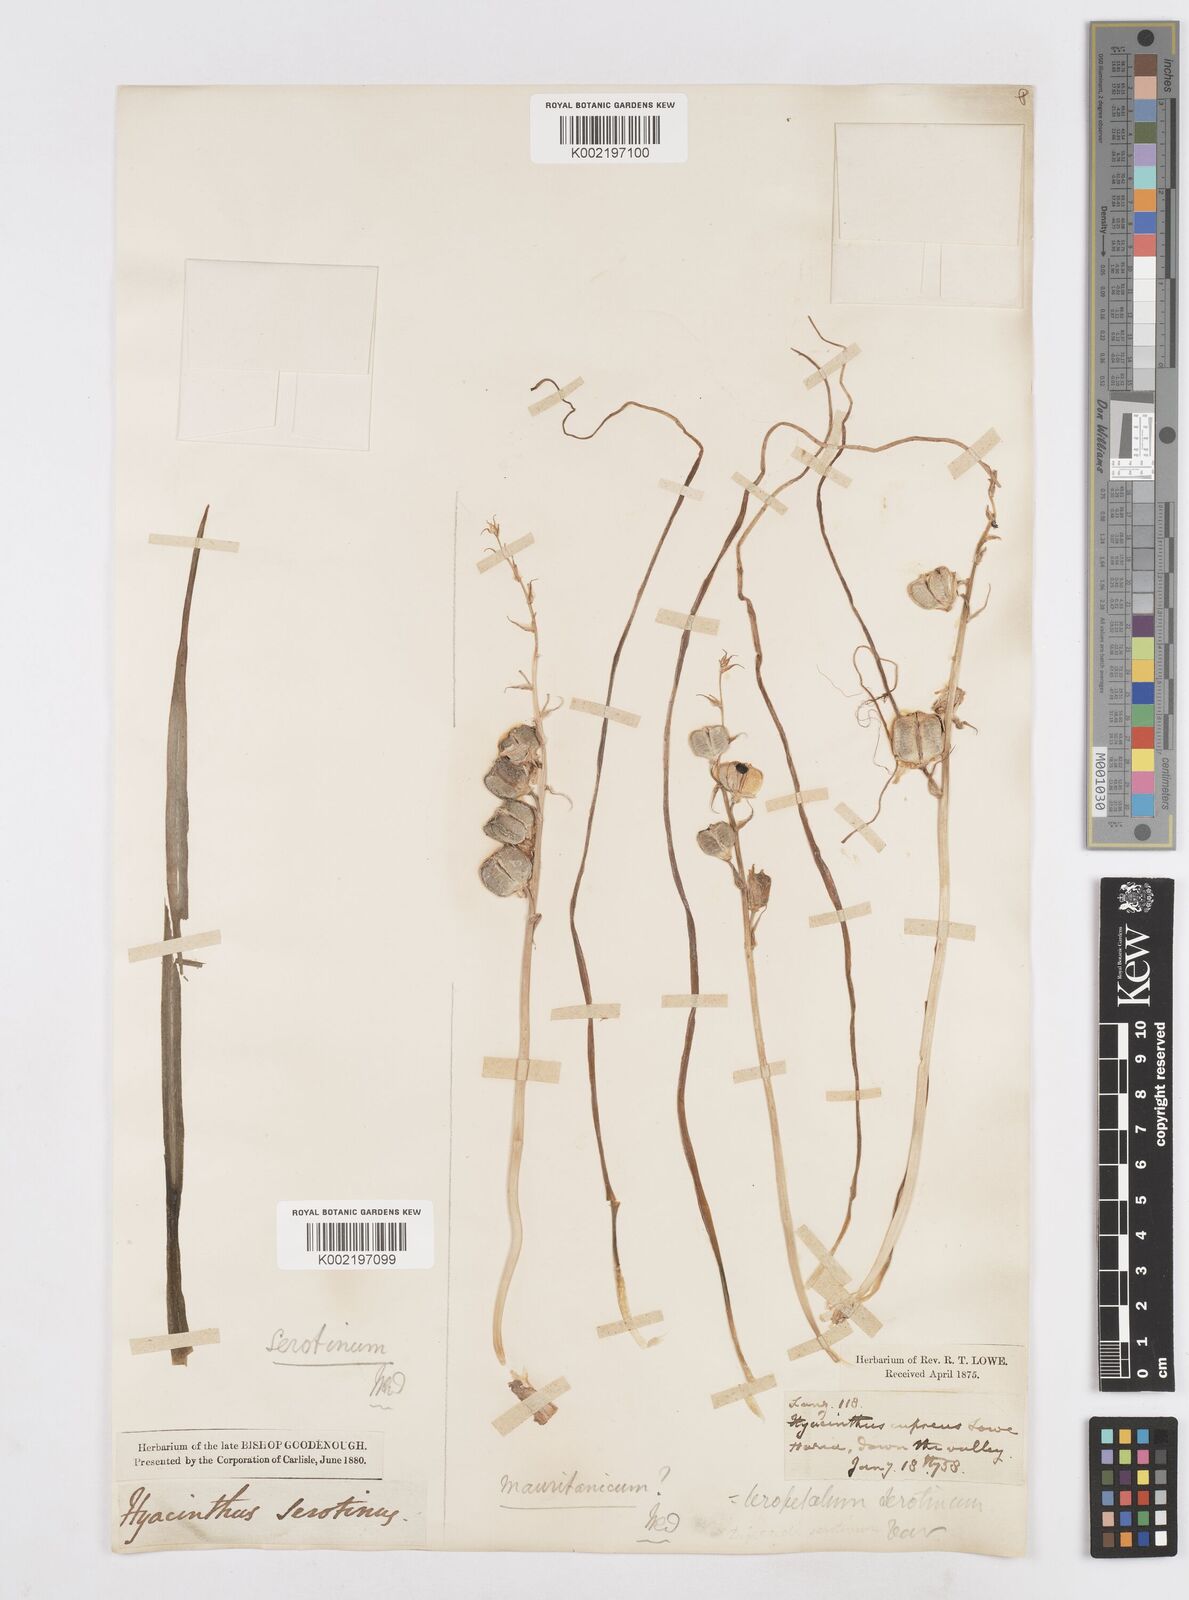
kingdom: Plantae
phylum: Tracheophyta
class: Liliopsida
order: Asparagales
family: Asparagaceae
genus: Dipcadi
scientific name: Dipcadi serotinum
